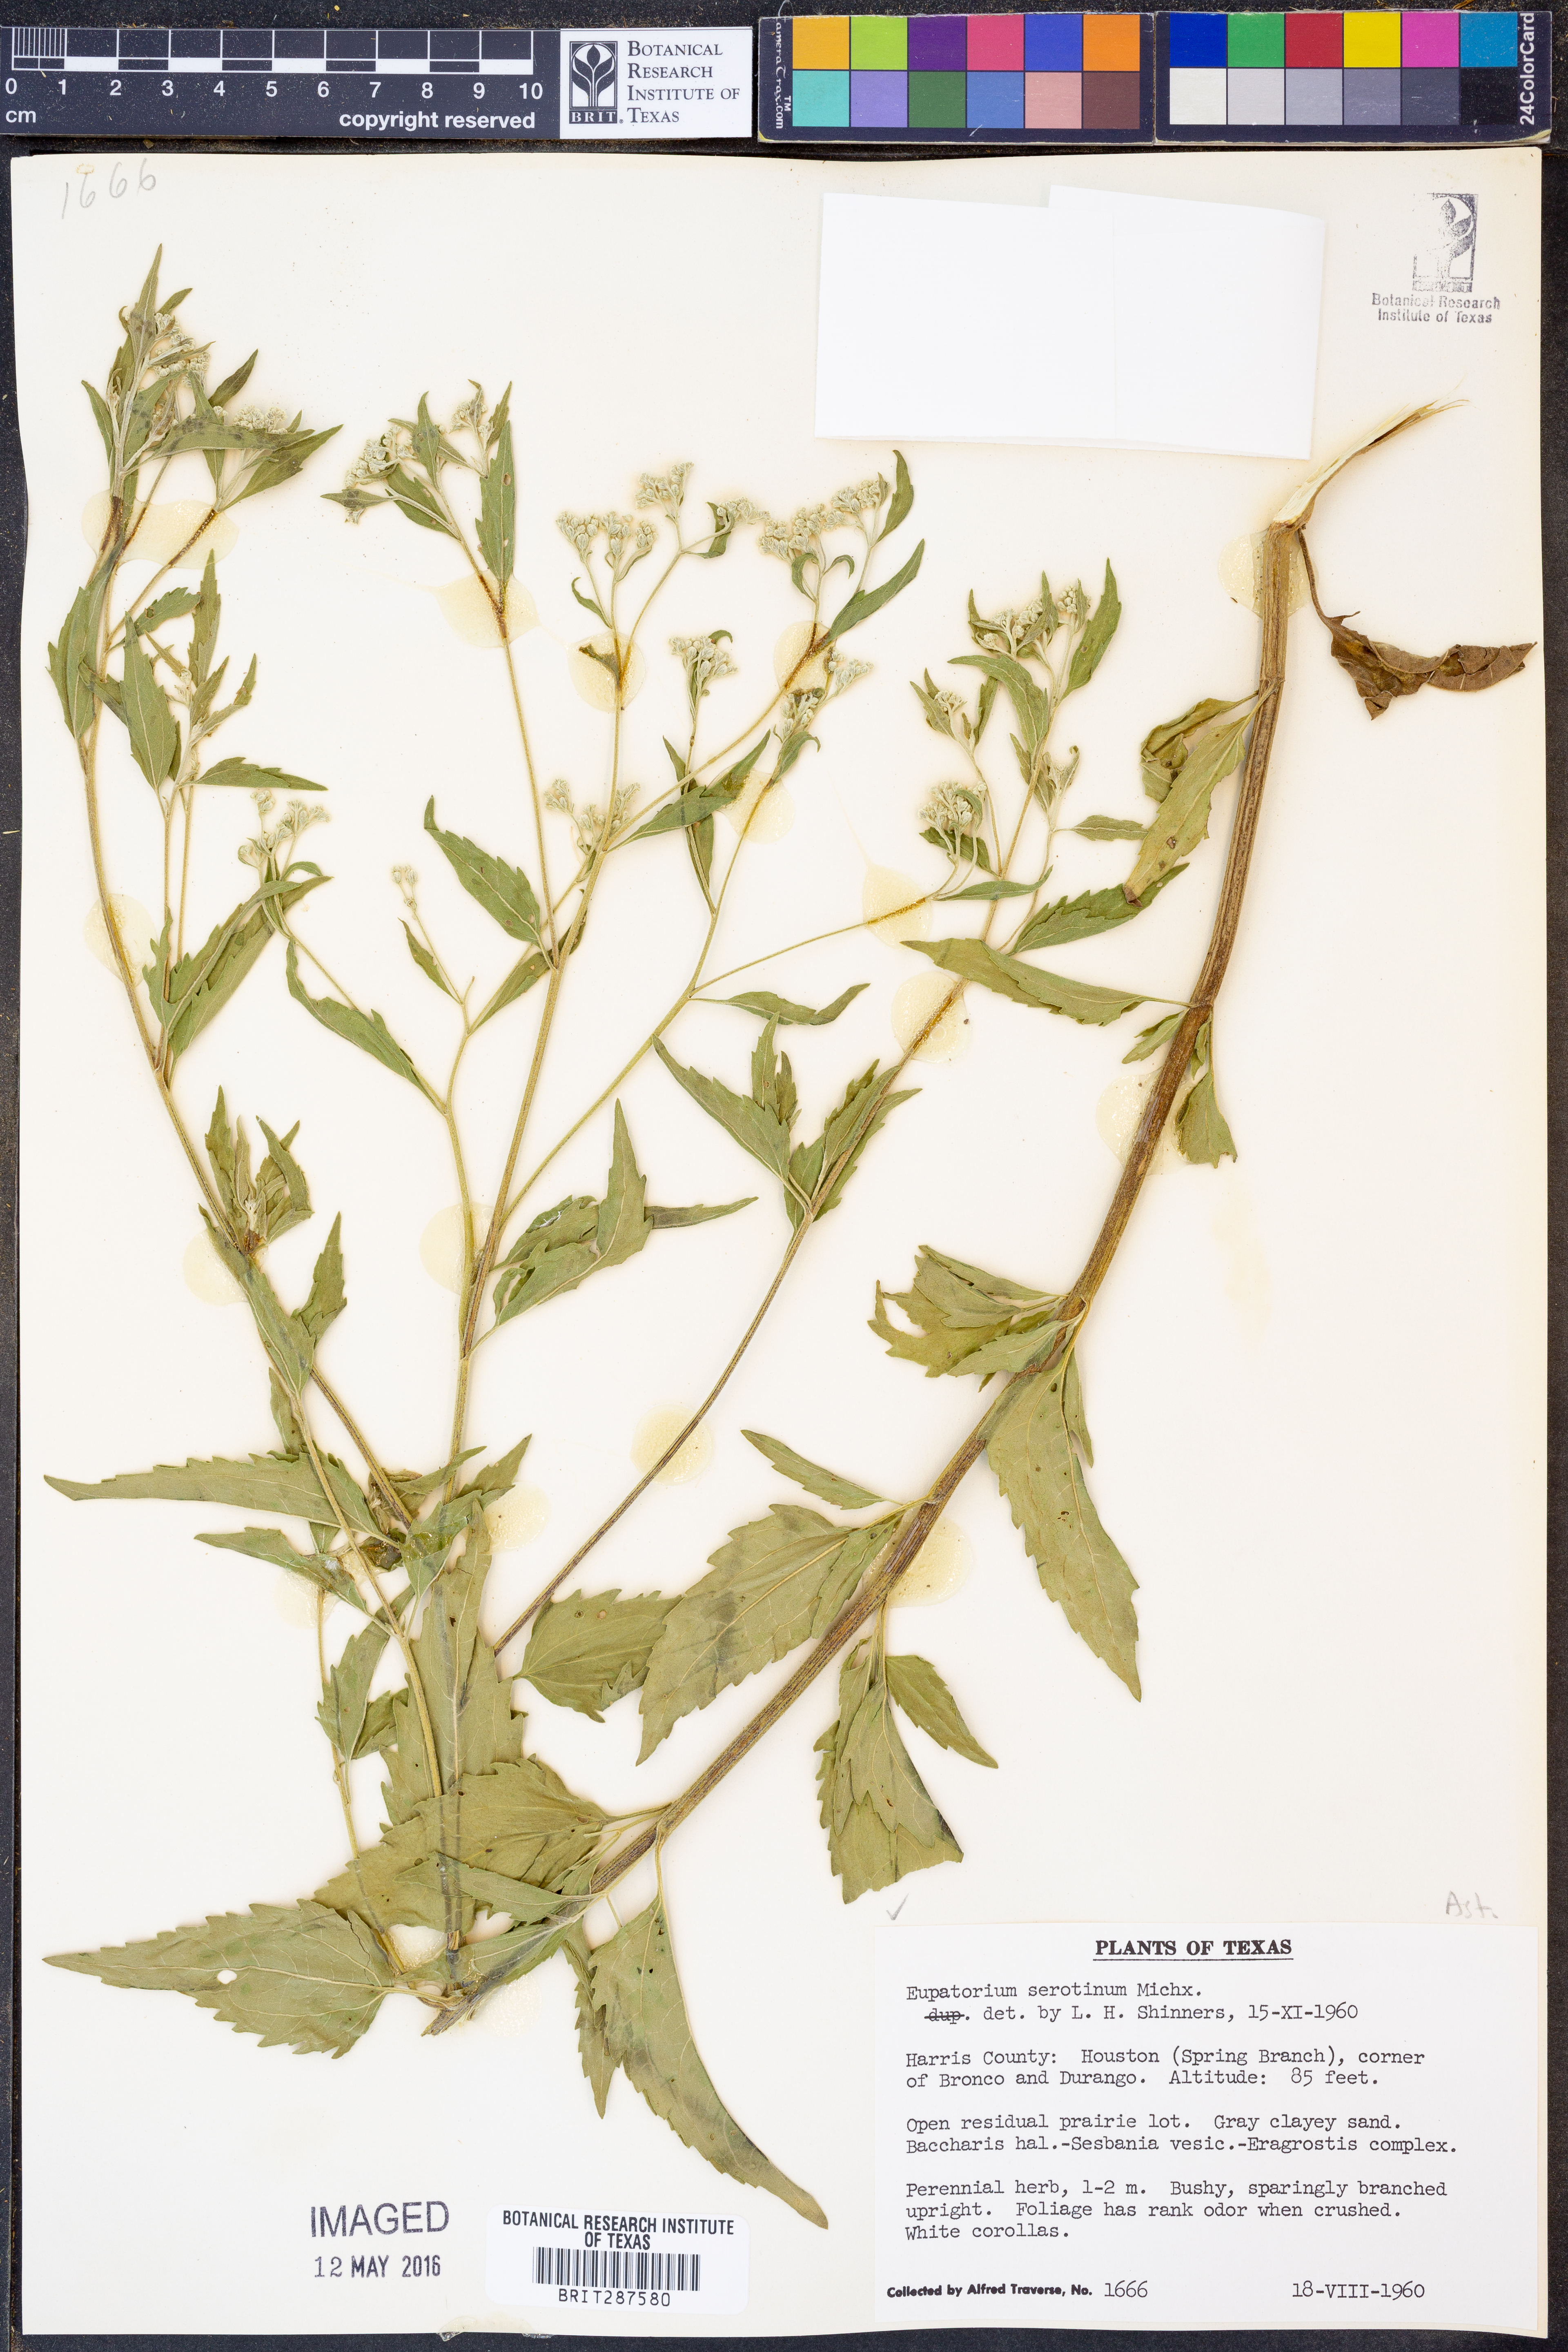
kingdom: Plantae
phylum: Tracheophyta
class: Magnoliopsida
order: Asterales
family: Asteraceae
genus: Eupatorium
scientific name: Eupatorium serotinum
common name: Late boneset
